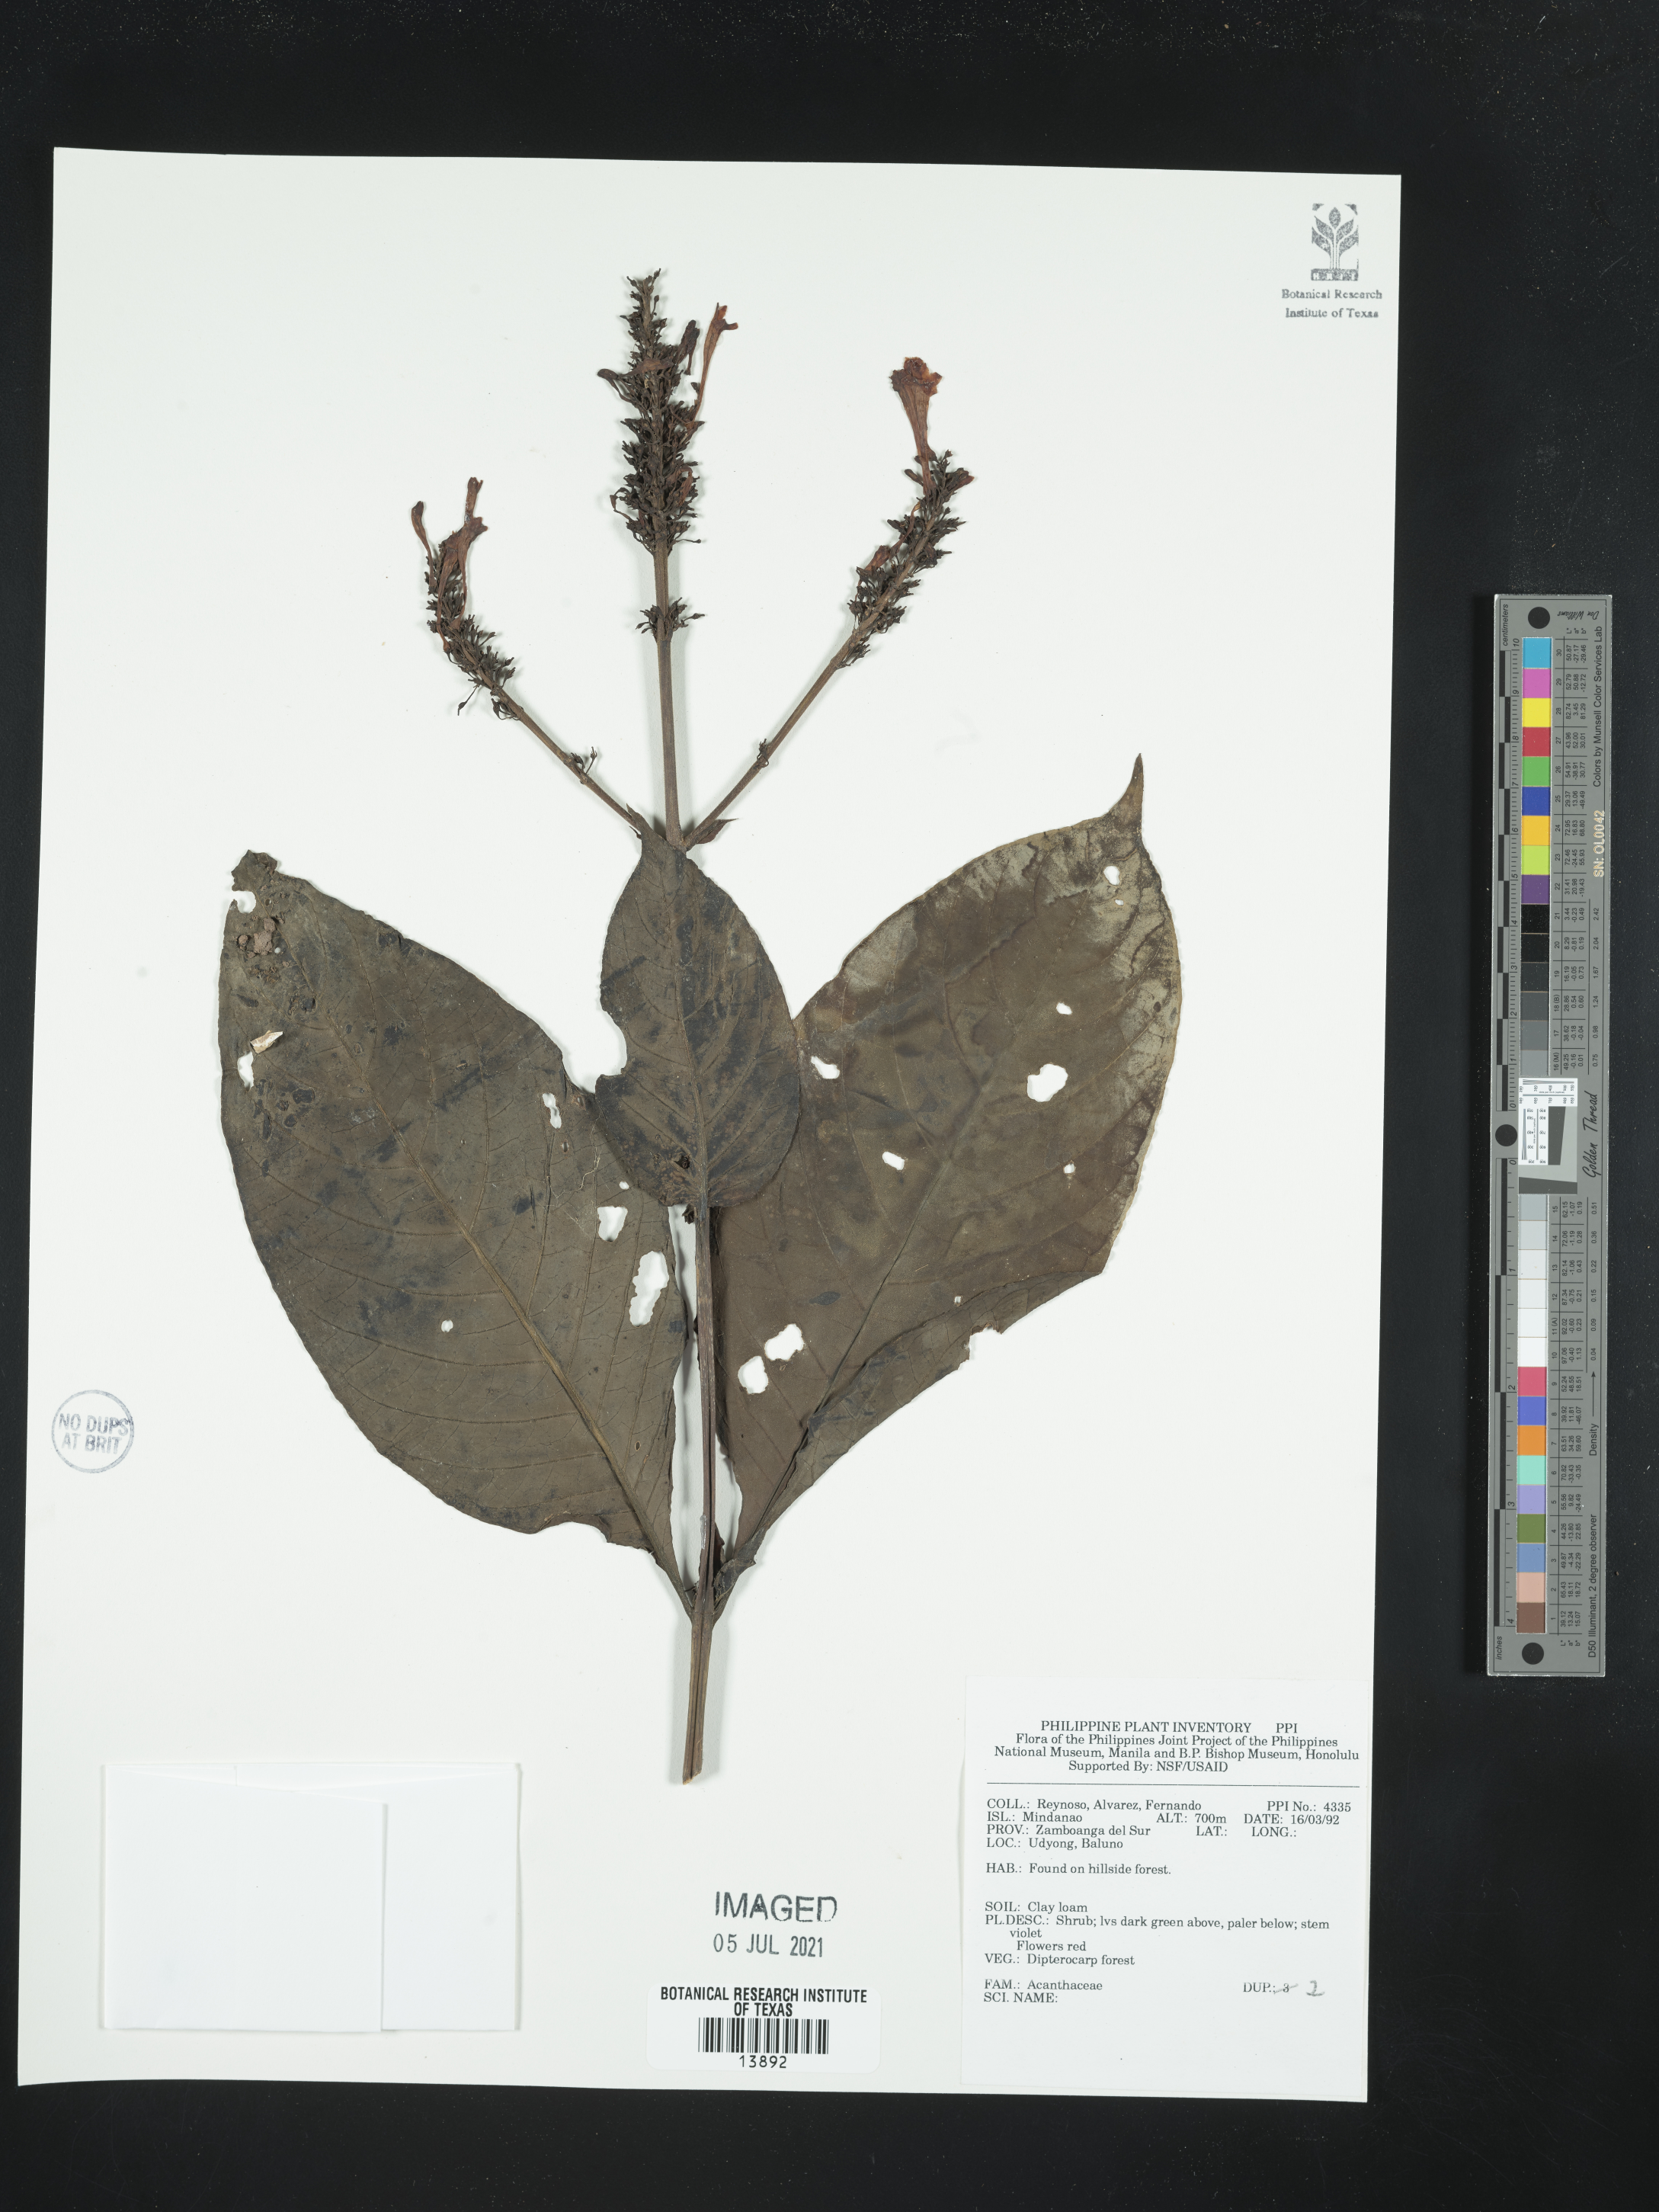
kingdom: Plantae
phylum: Tracheophyta
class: Magnoliopsida
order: Lamiales
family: Acanthaceae
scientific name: Acanthaceae
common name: Acanthaceae
